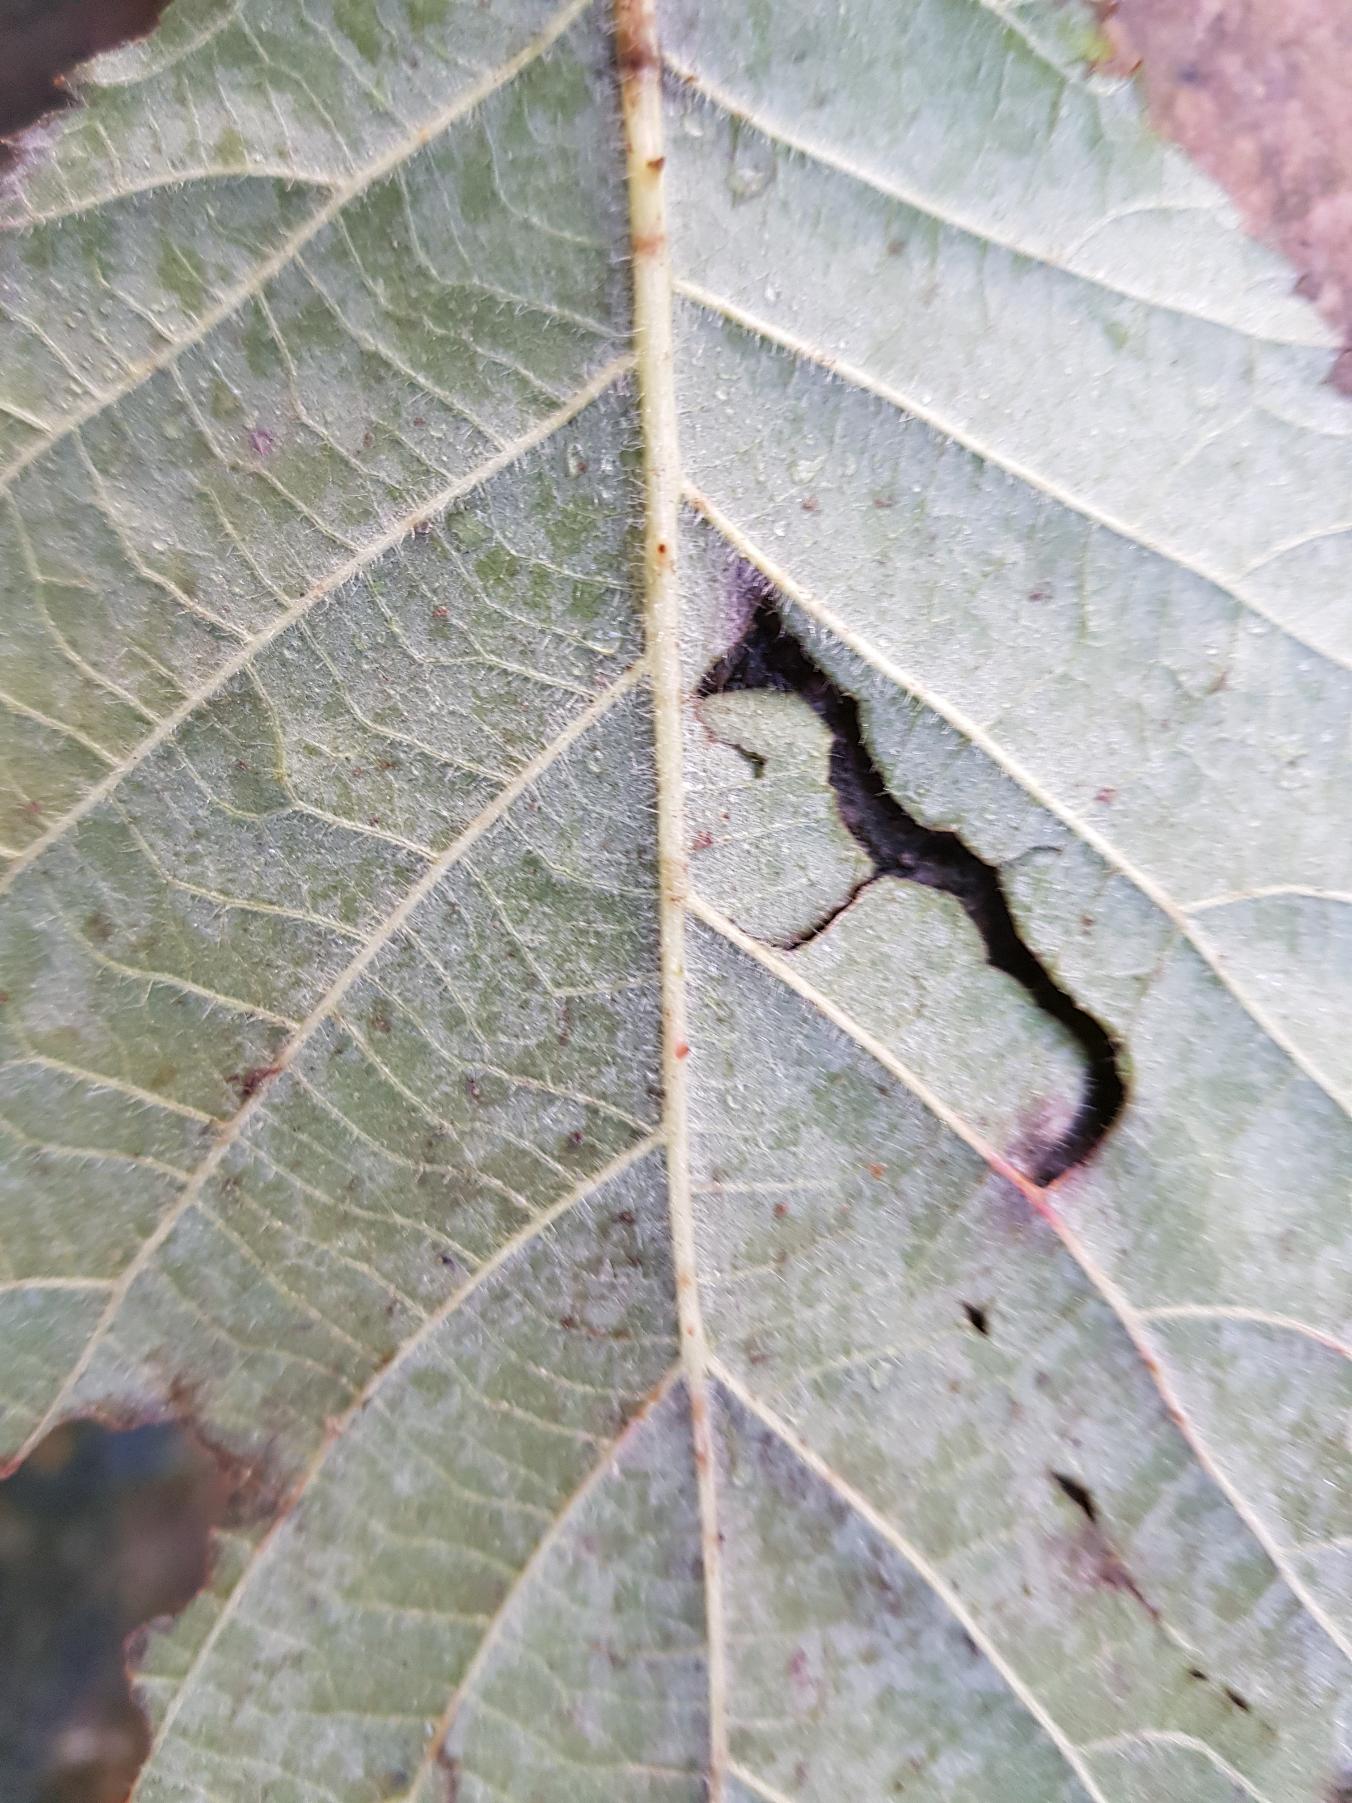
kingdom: Plantae
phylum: Tracheophyta
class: Magnoliopsida
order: Rosales
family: Rosaceae
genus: Rubus
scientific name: Rubus
